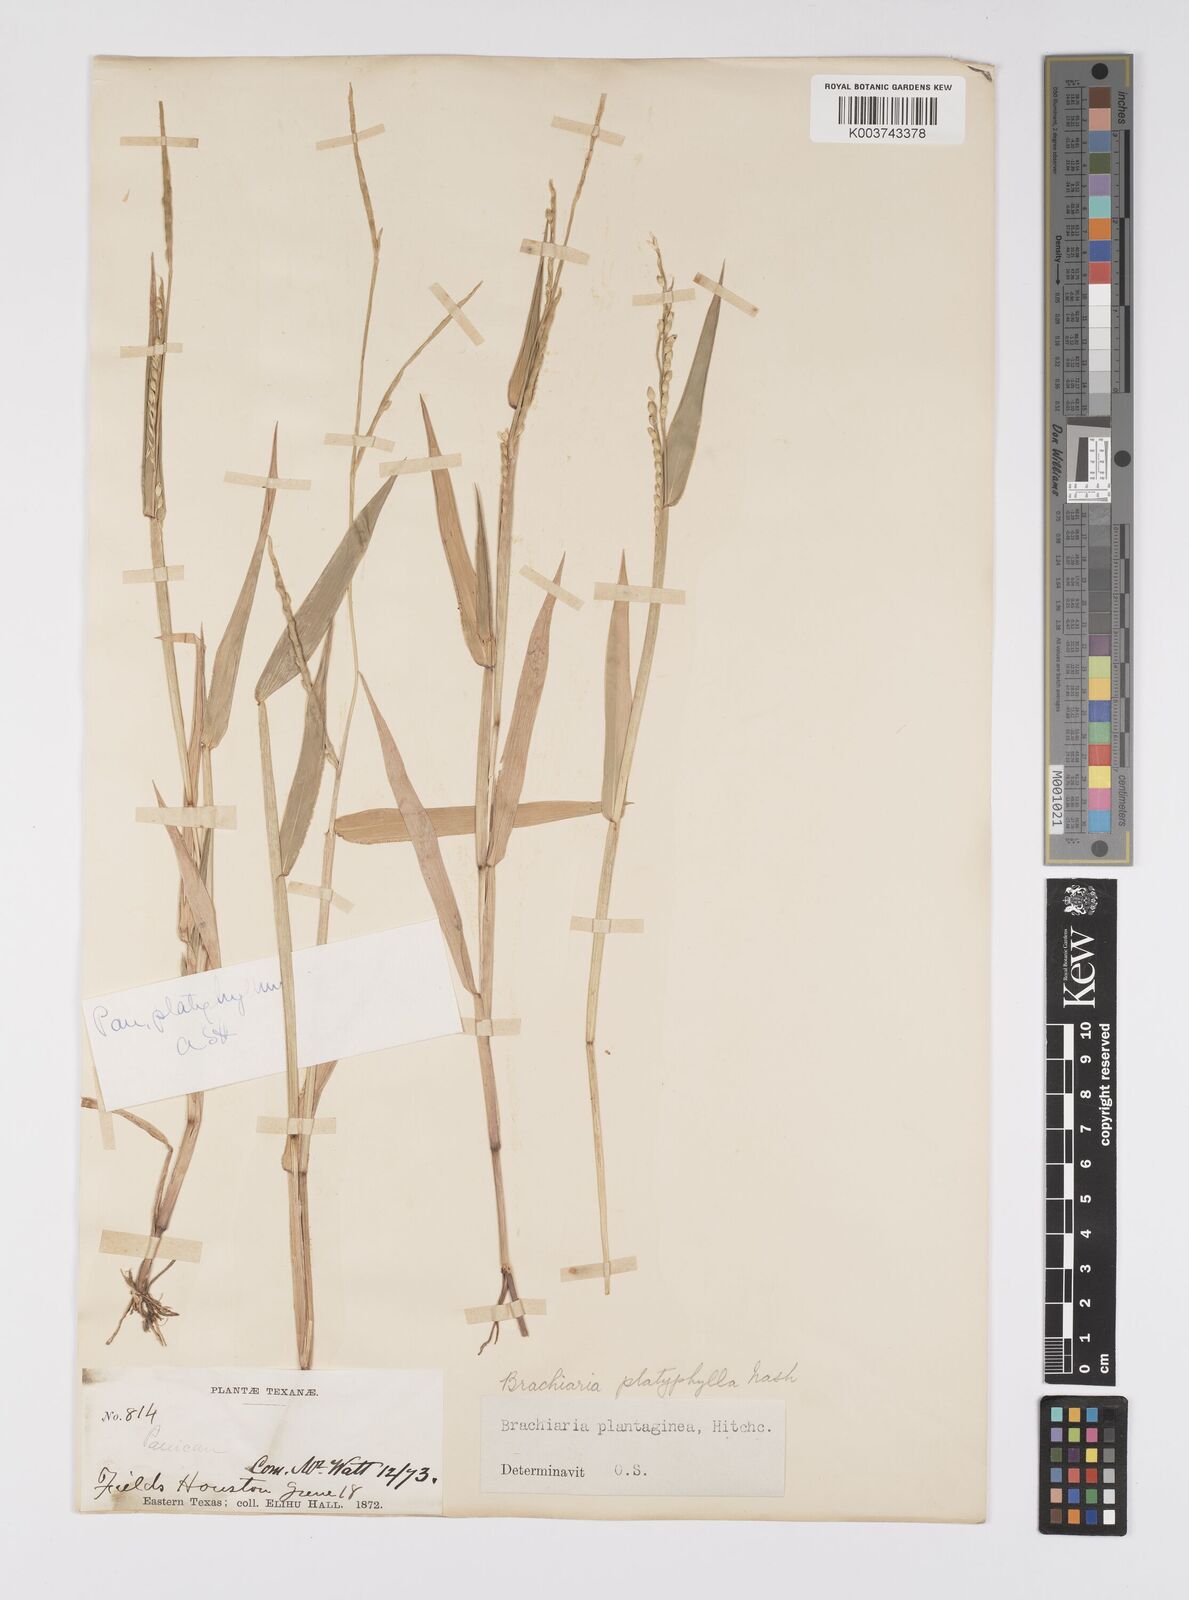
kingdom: Plantae
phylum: Tracheophyta
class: Liliopsida
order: Poales
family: Poaceae
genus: Urochloa
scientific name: Urochloa platyphylla
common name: White para grass
